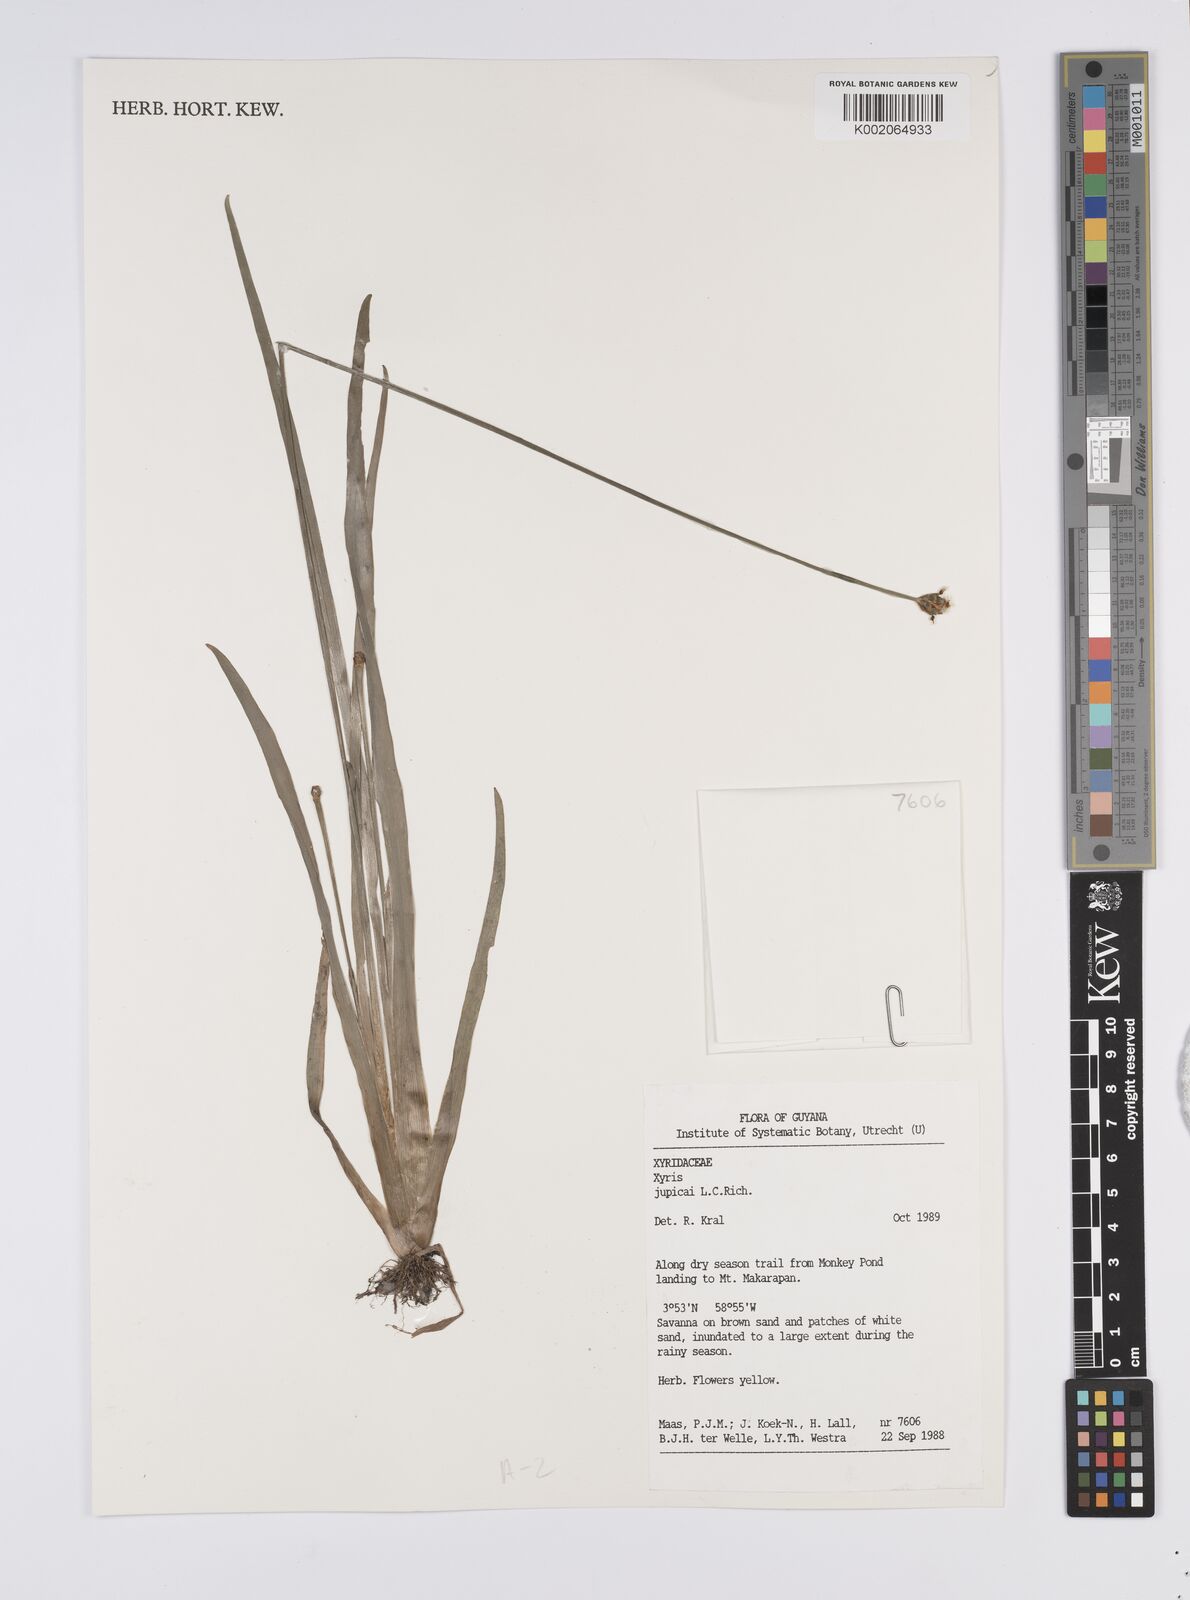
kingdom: Plantae
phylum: Tracheophyta
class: Liliopsida
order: Poales
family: Xyridaceae
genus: Xyris
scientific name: Xyris jupicai
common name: Richard's yelloweyed grass
